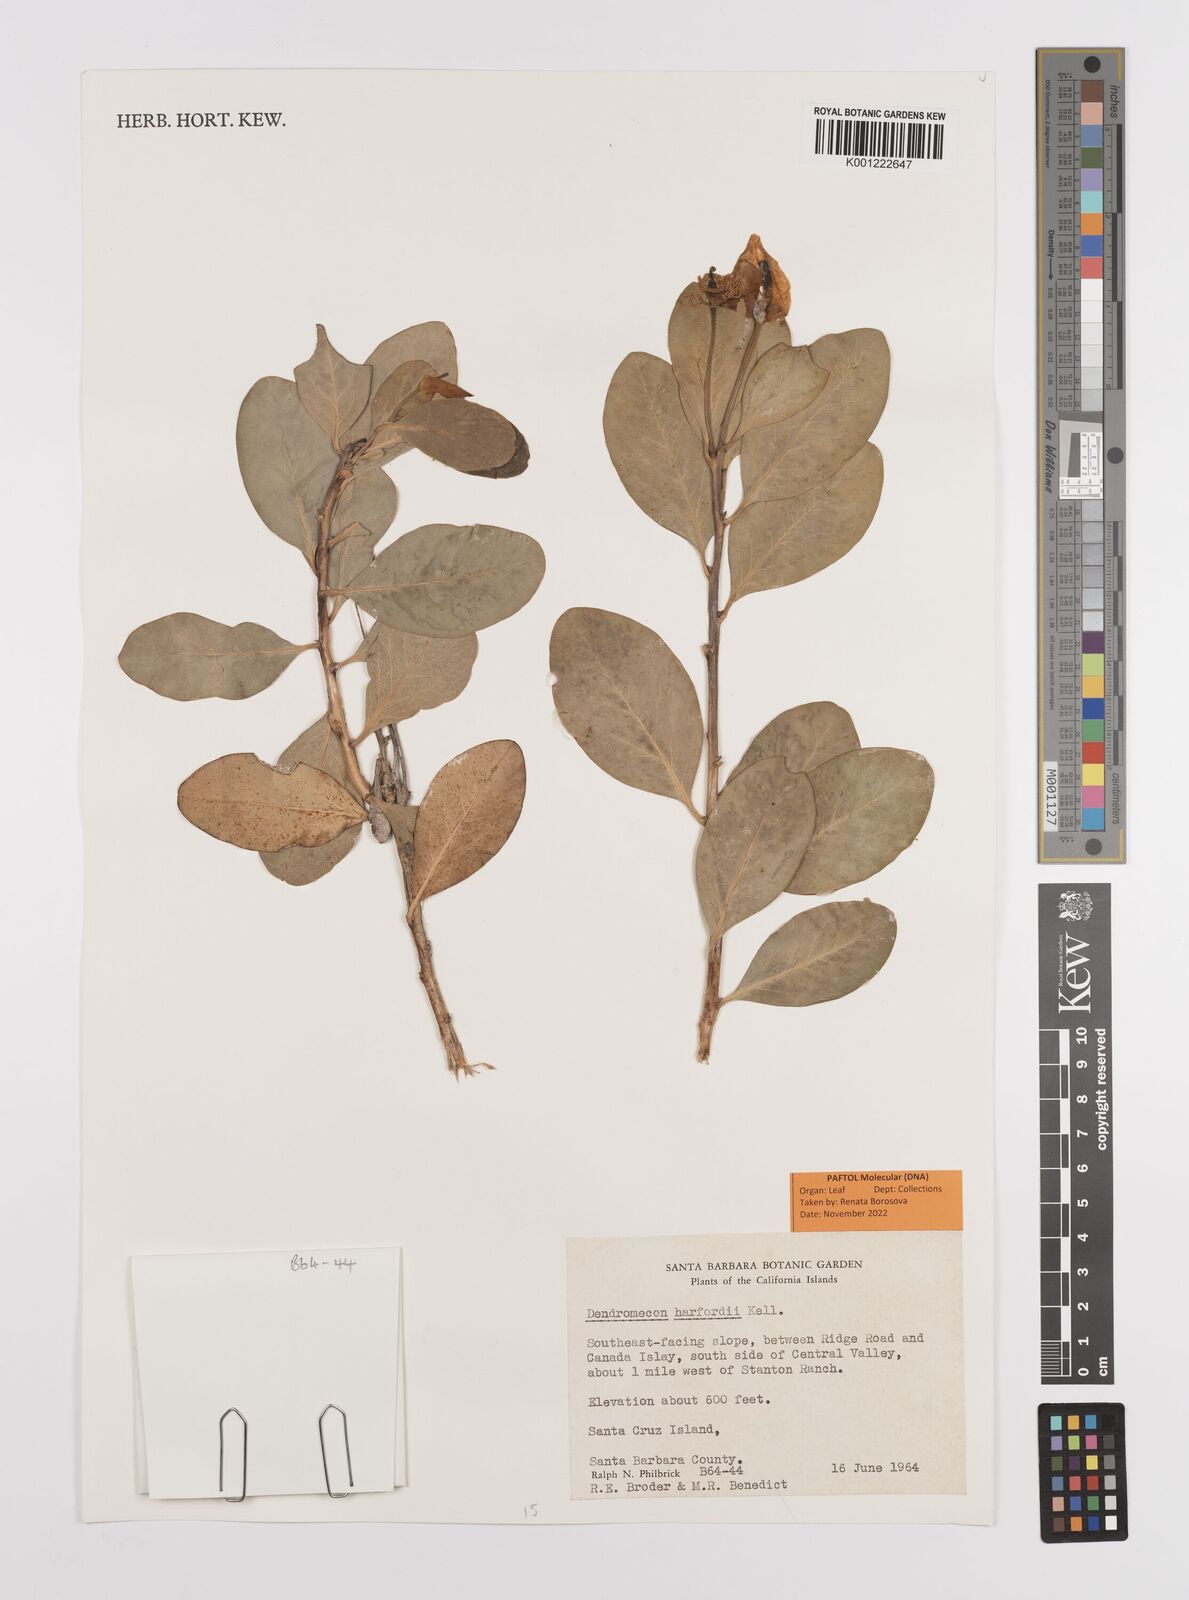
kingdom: Plantae
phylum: Tracheophyta
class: Magnoliopsida
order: Ranunculales
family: Papaveraceae
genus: Dendromecon
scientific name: Dendromecon harfordii
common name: Island tree-poppy
